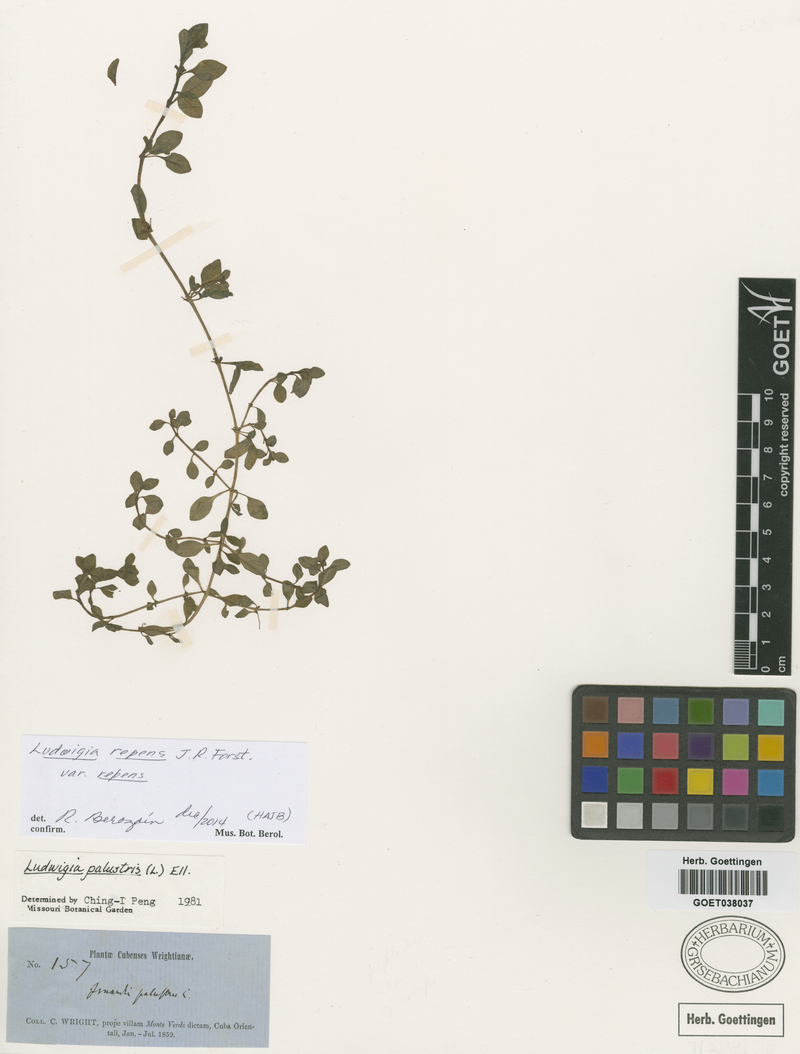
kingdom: Plantae
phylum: Tracheophyta
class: Magnoliopsida
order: Myrtales
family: Onagraceae
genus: Ludwigia
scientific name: Ludwigia repens
